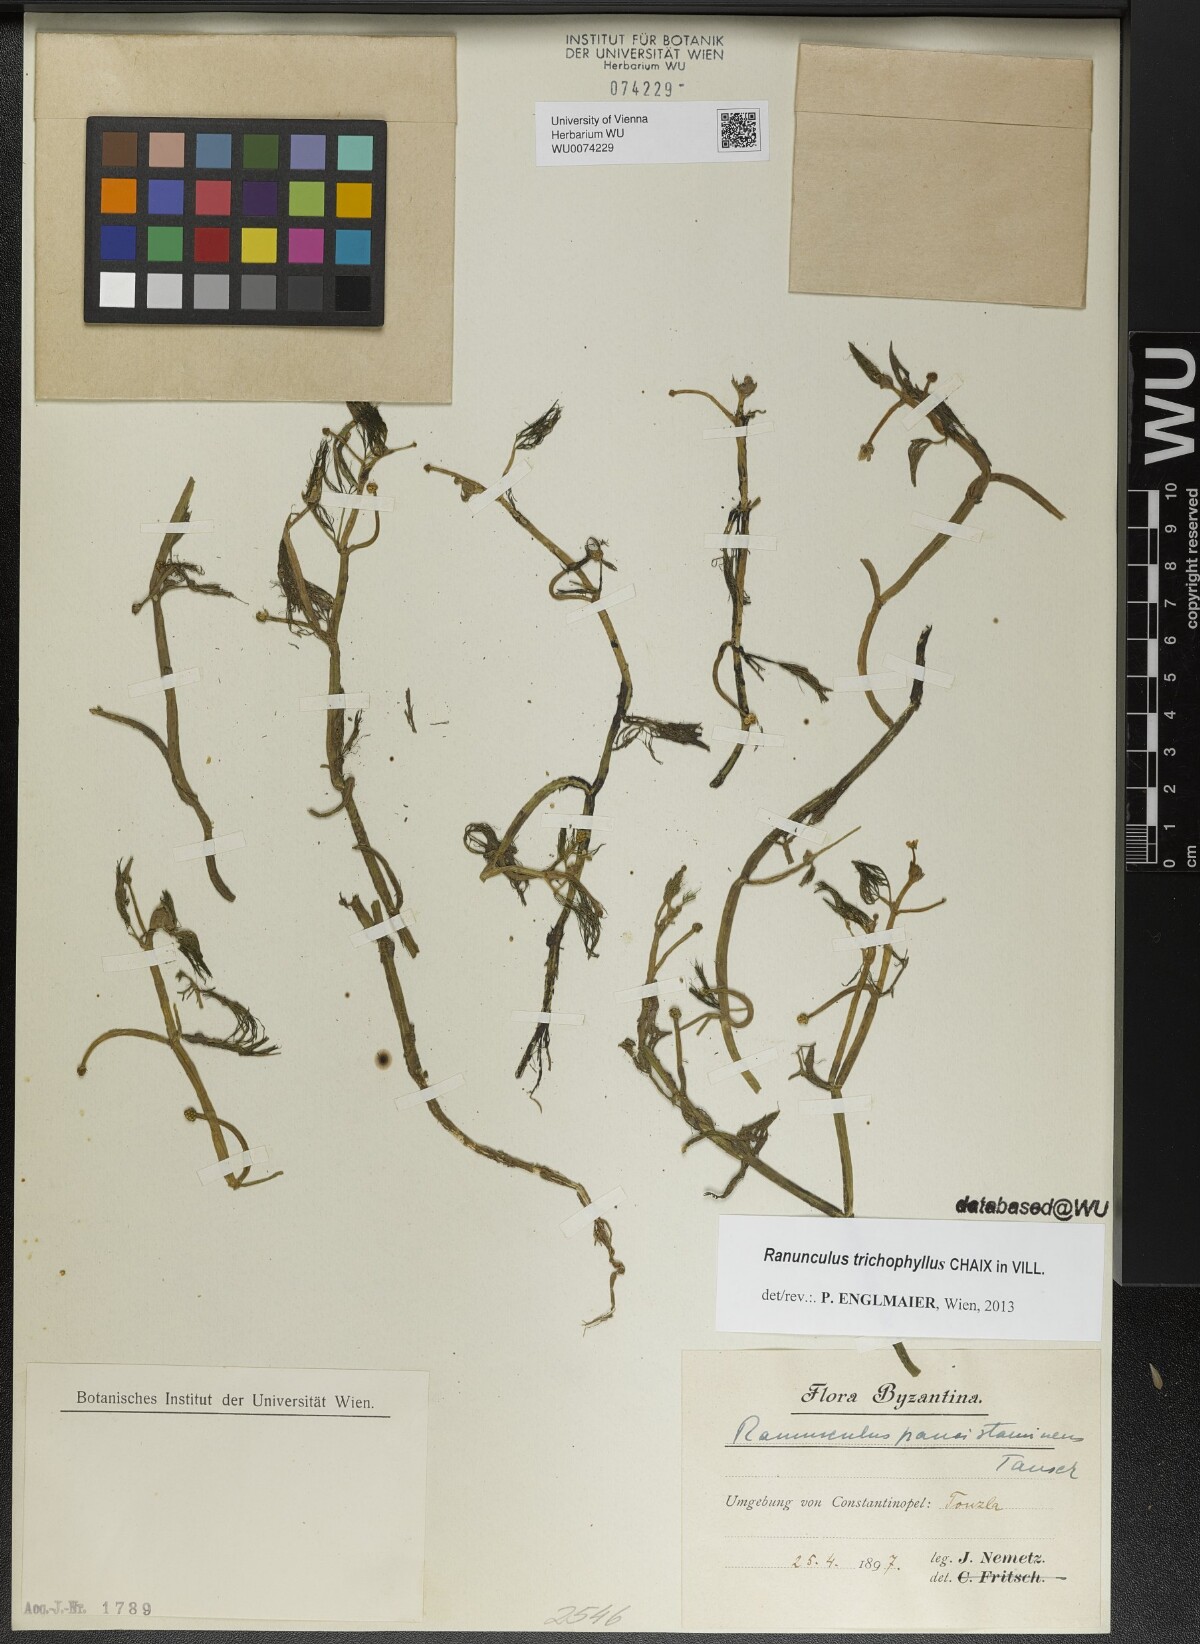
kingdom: Plantae
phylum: Tracheophyta
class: Magnoliopsida
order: Ranunculales
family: Ranunculaceae
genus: Ranunculus
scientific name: Ranunculus trichophyllus
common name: Thread-leaved water-crowfoot
